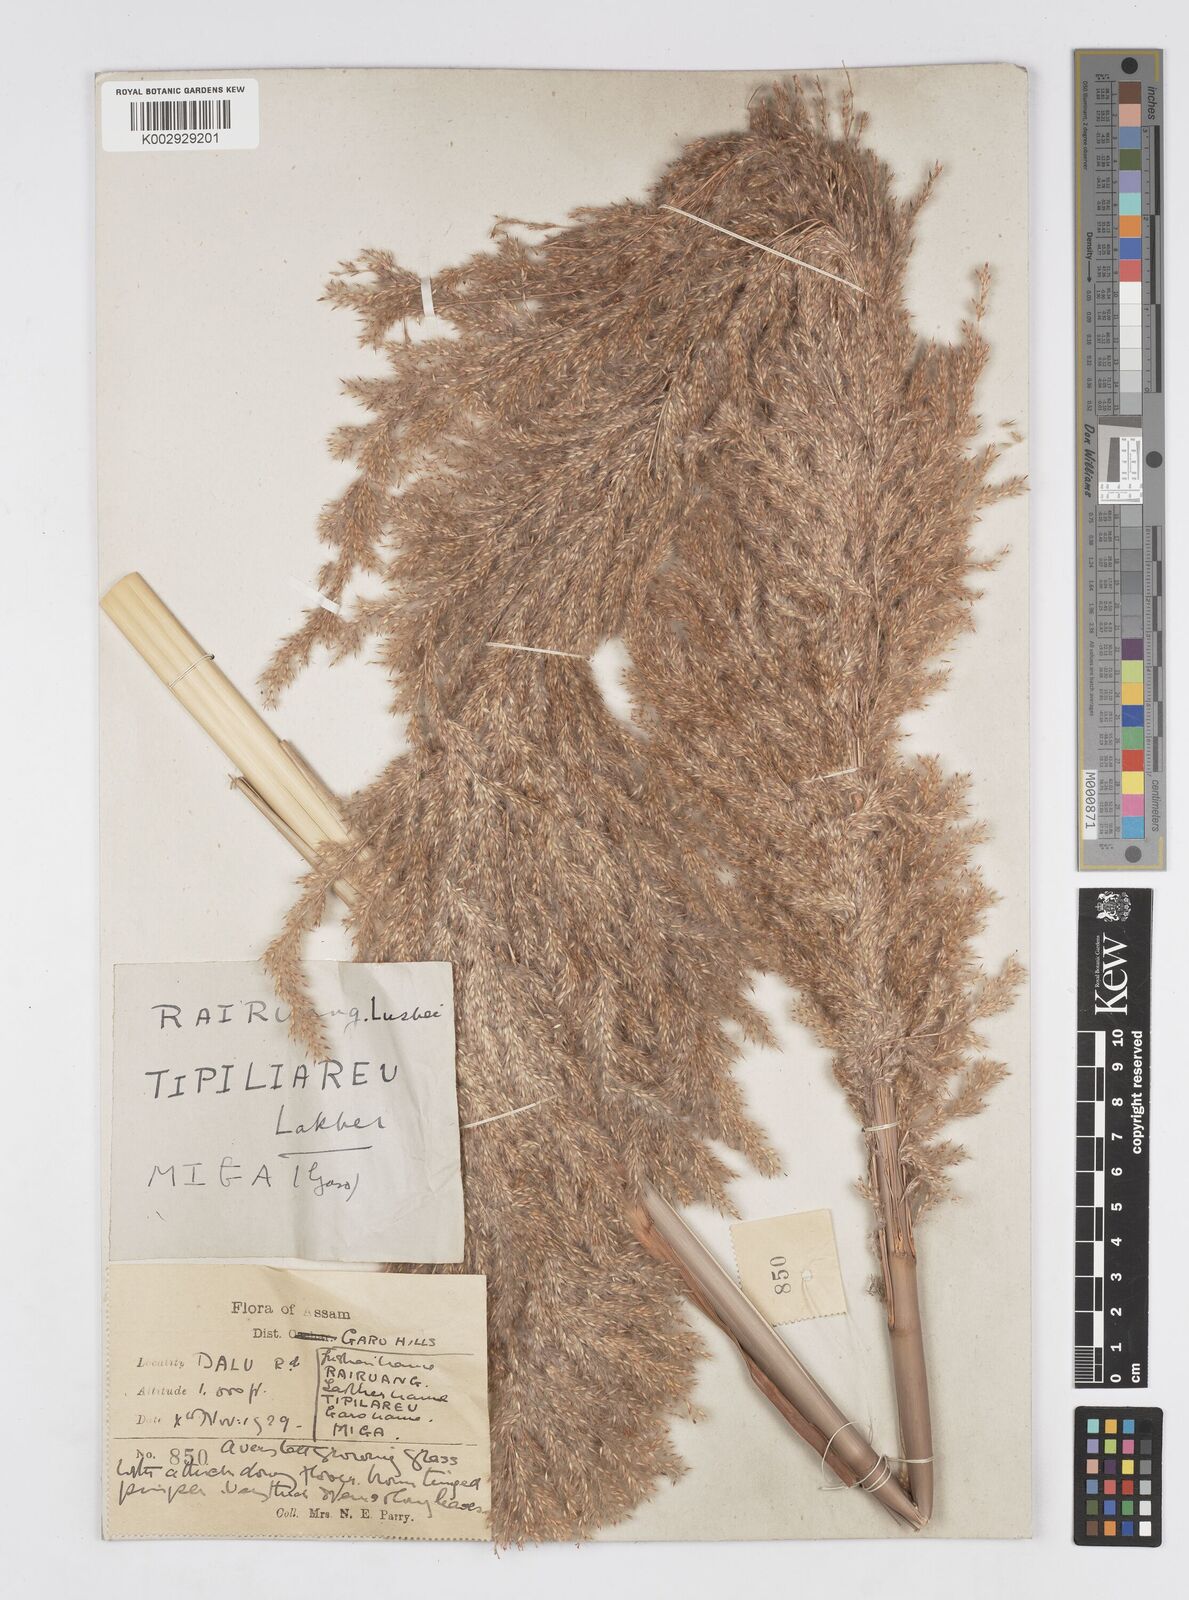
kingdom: Plantae
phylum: Tracheophyta
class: Liliopsida
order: Poales
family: Poaceae
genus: Tripidium
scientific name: Tripidium ravennae
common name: Ravenna grass
